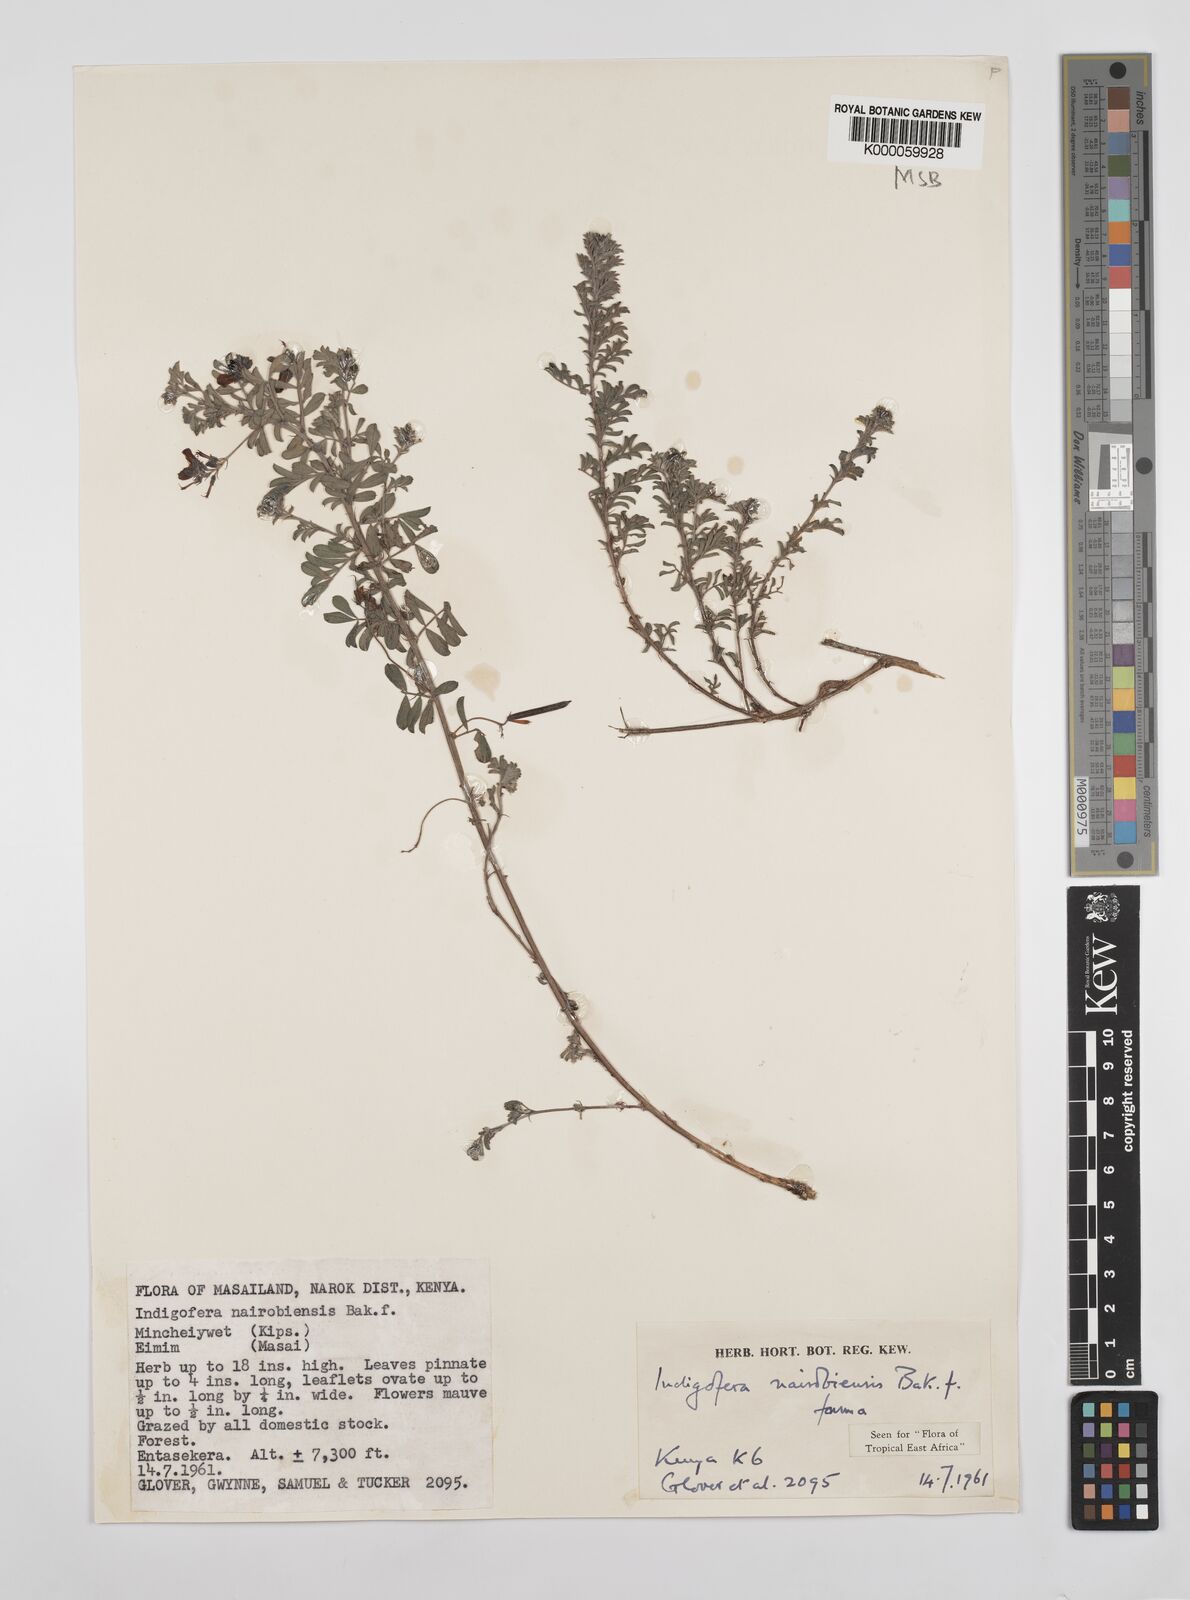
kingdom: Plantae
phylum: Tracheophyta
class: Magnoliopsida
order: Fabales
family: Fabaceae
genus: Indigofera
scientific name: Indigofera nairobiensis
